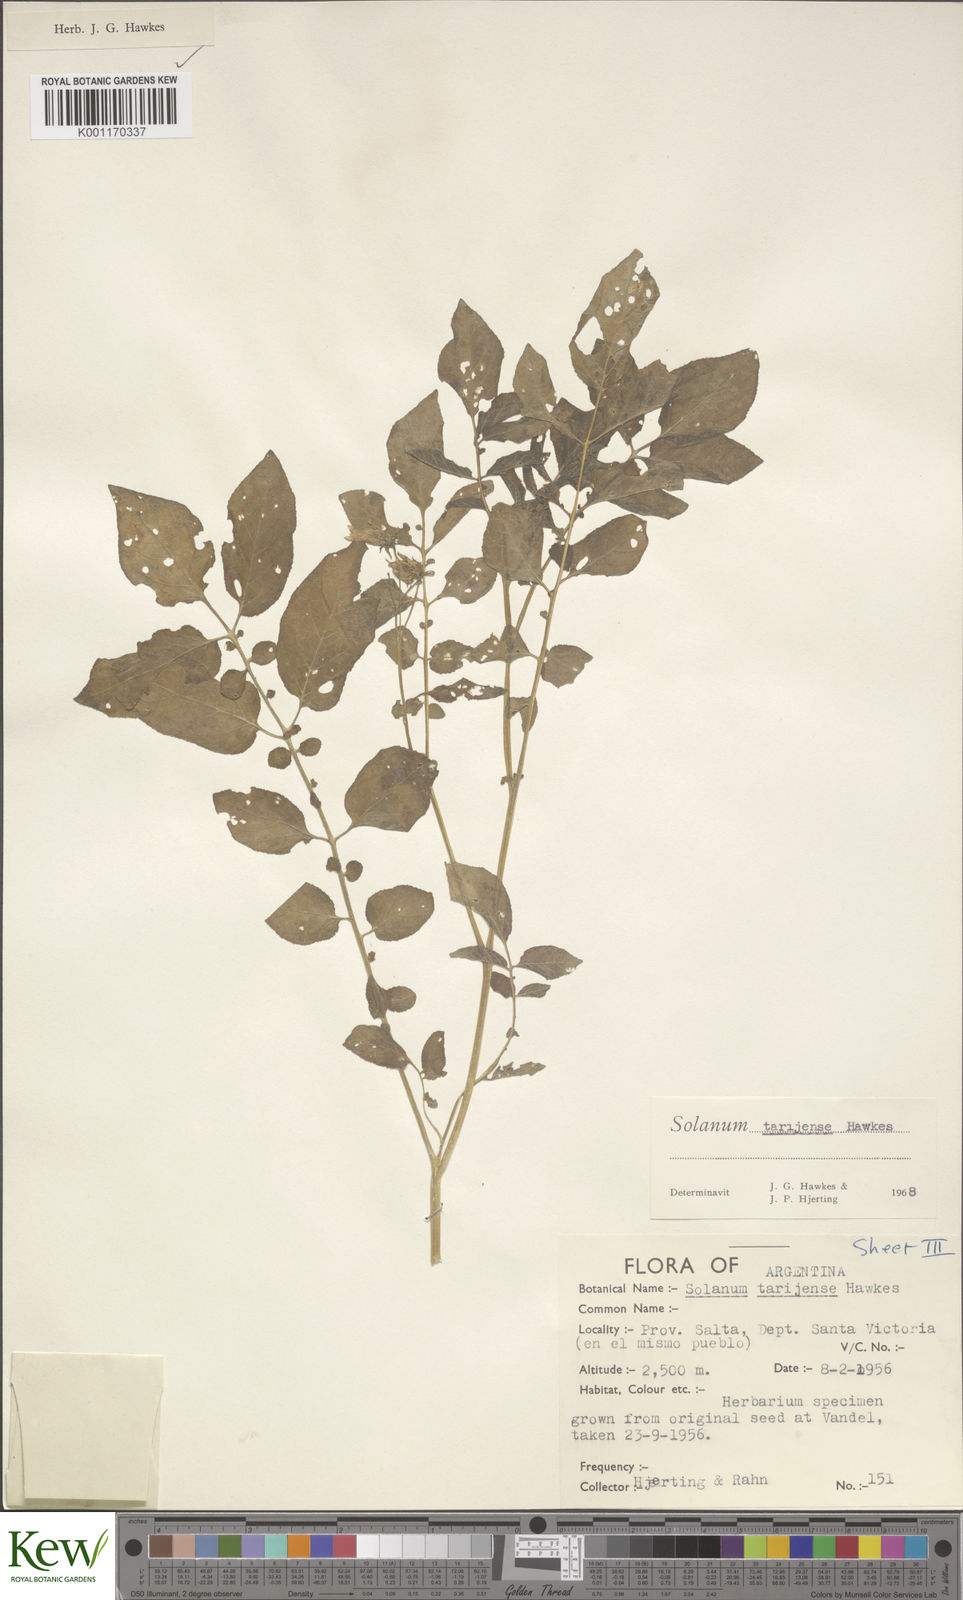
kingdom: Plantae
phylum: Tracheophyta
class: Magnoliopsida
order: Solanales
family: Solanaceae
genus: Solanum
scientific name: Solanum tarijense
